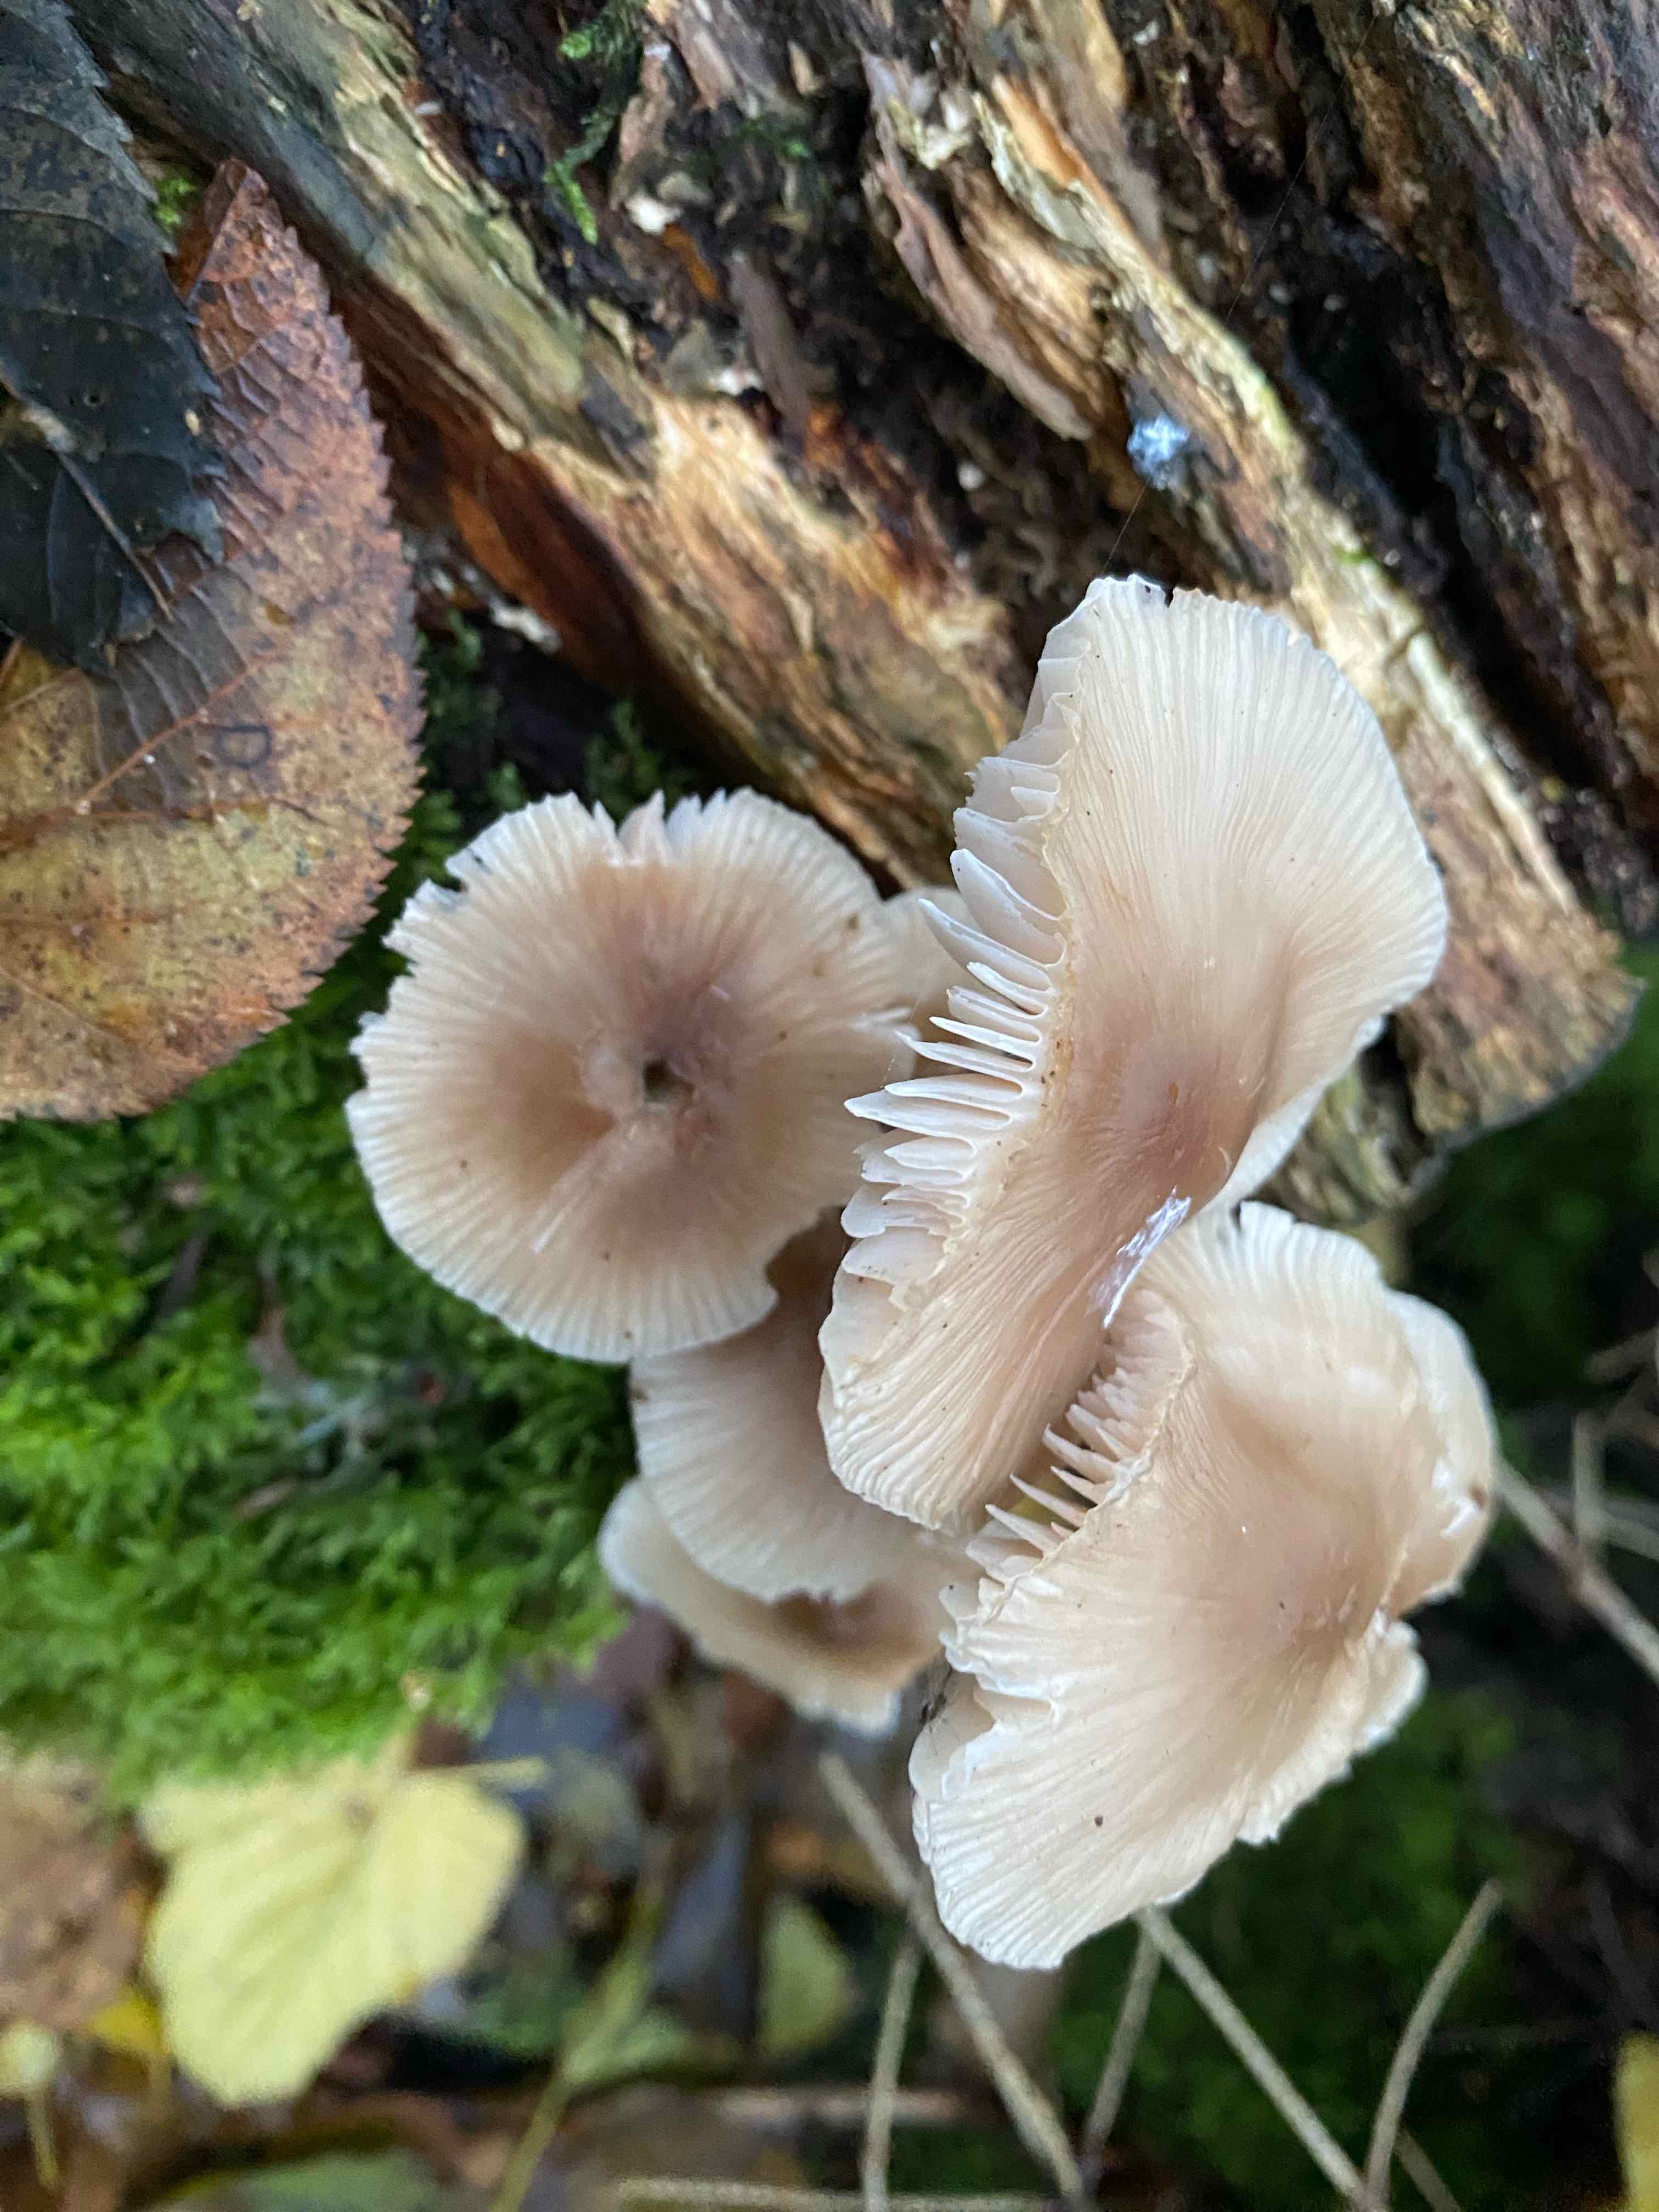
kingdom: Fungi
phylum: Basidiomycota
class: Agaricomycetes
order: Agaricales
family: Mycenaceae
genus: Mycena
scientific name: Mycena galericulata
